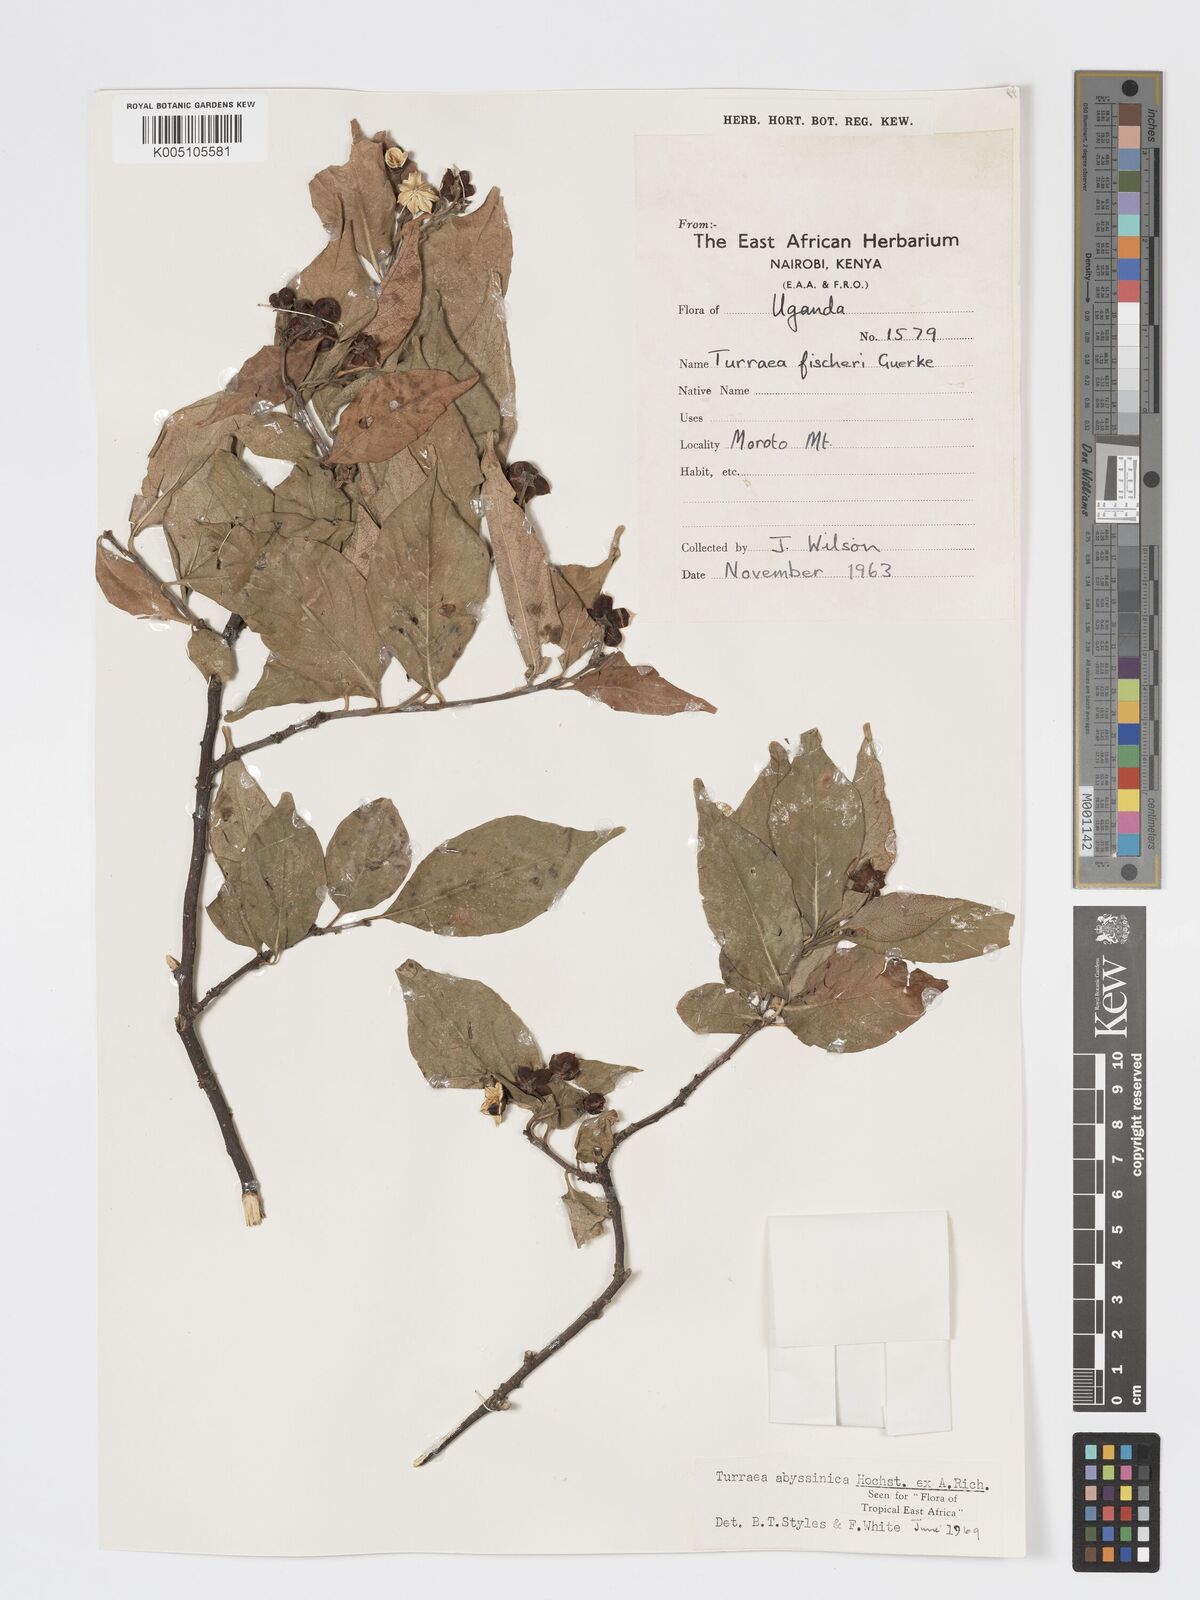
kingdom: Plantae
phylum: Tracheophyta
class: Magnoliopsida
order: Sapindales
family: Meliaceae
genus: Turraea
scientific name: Turraea abyssinica
